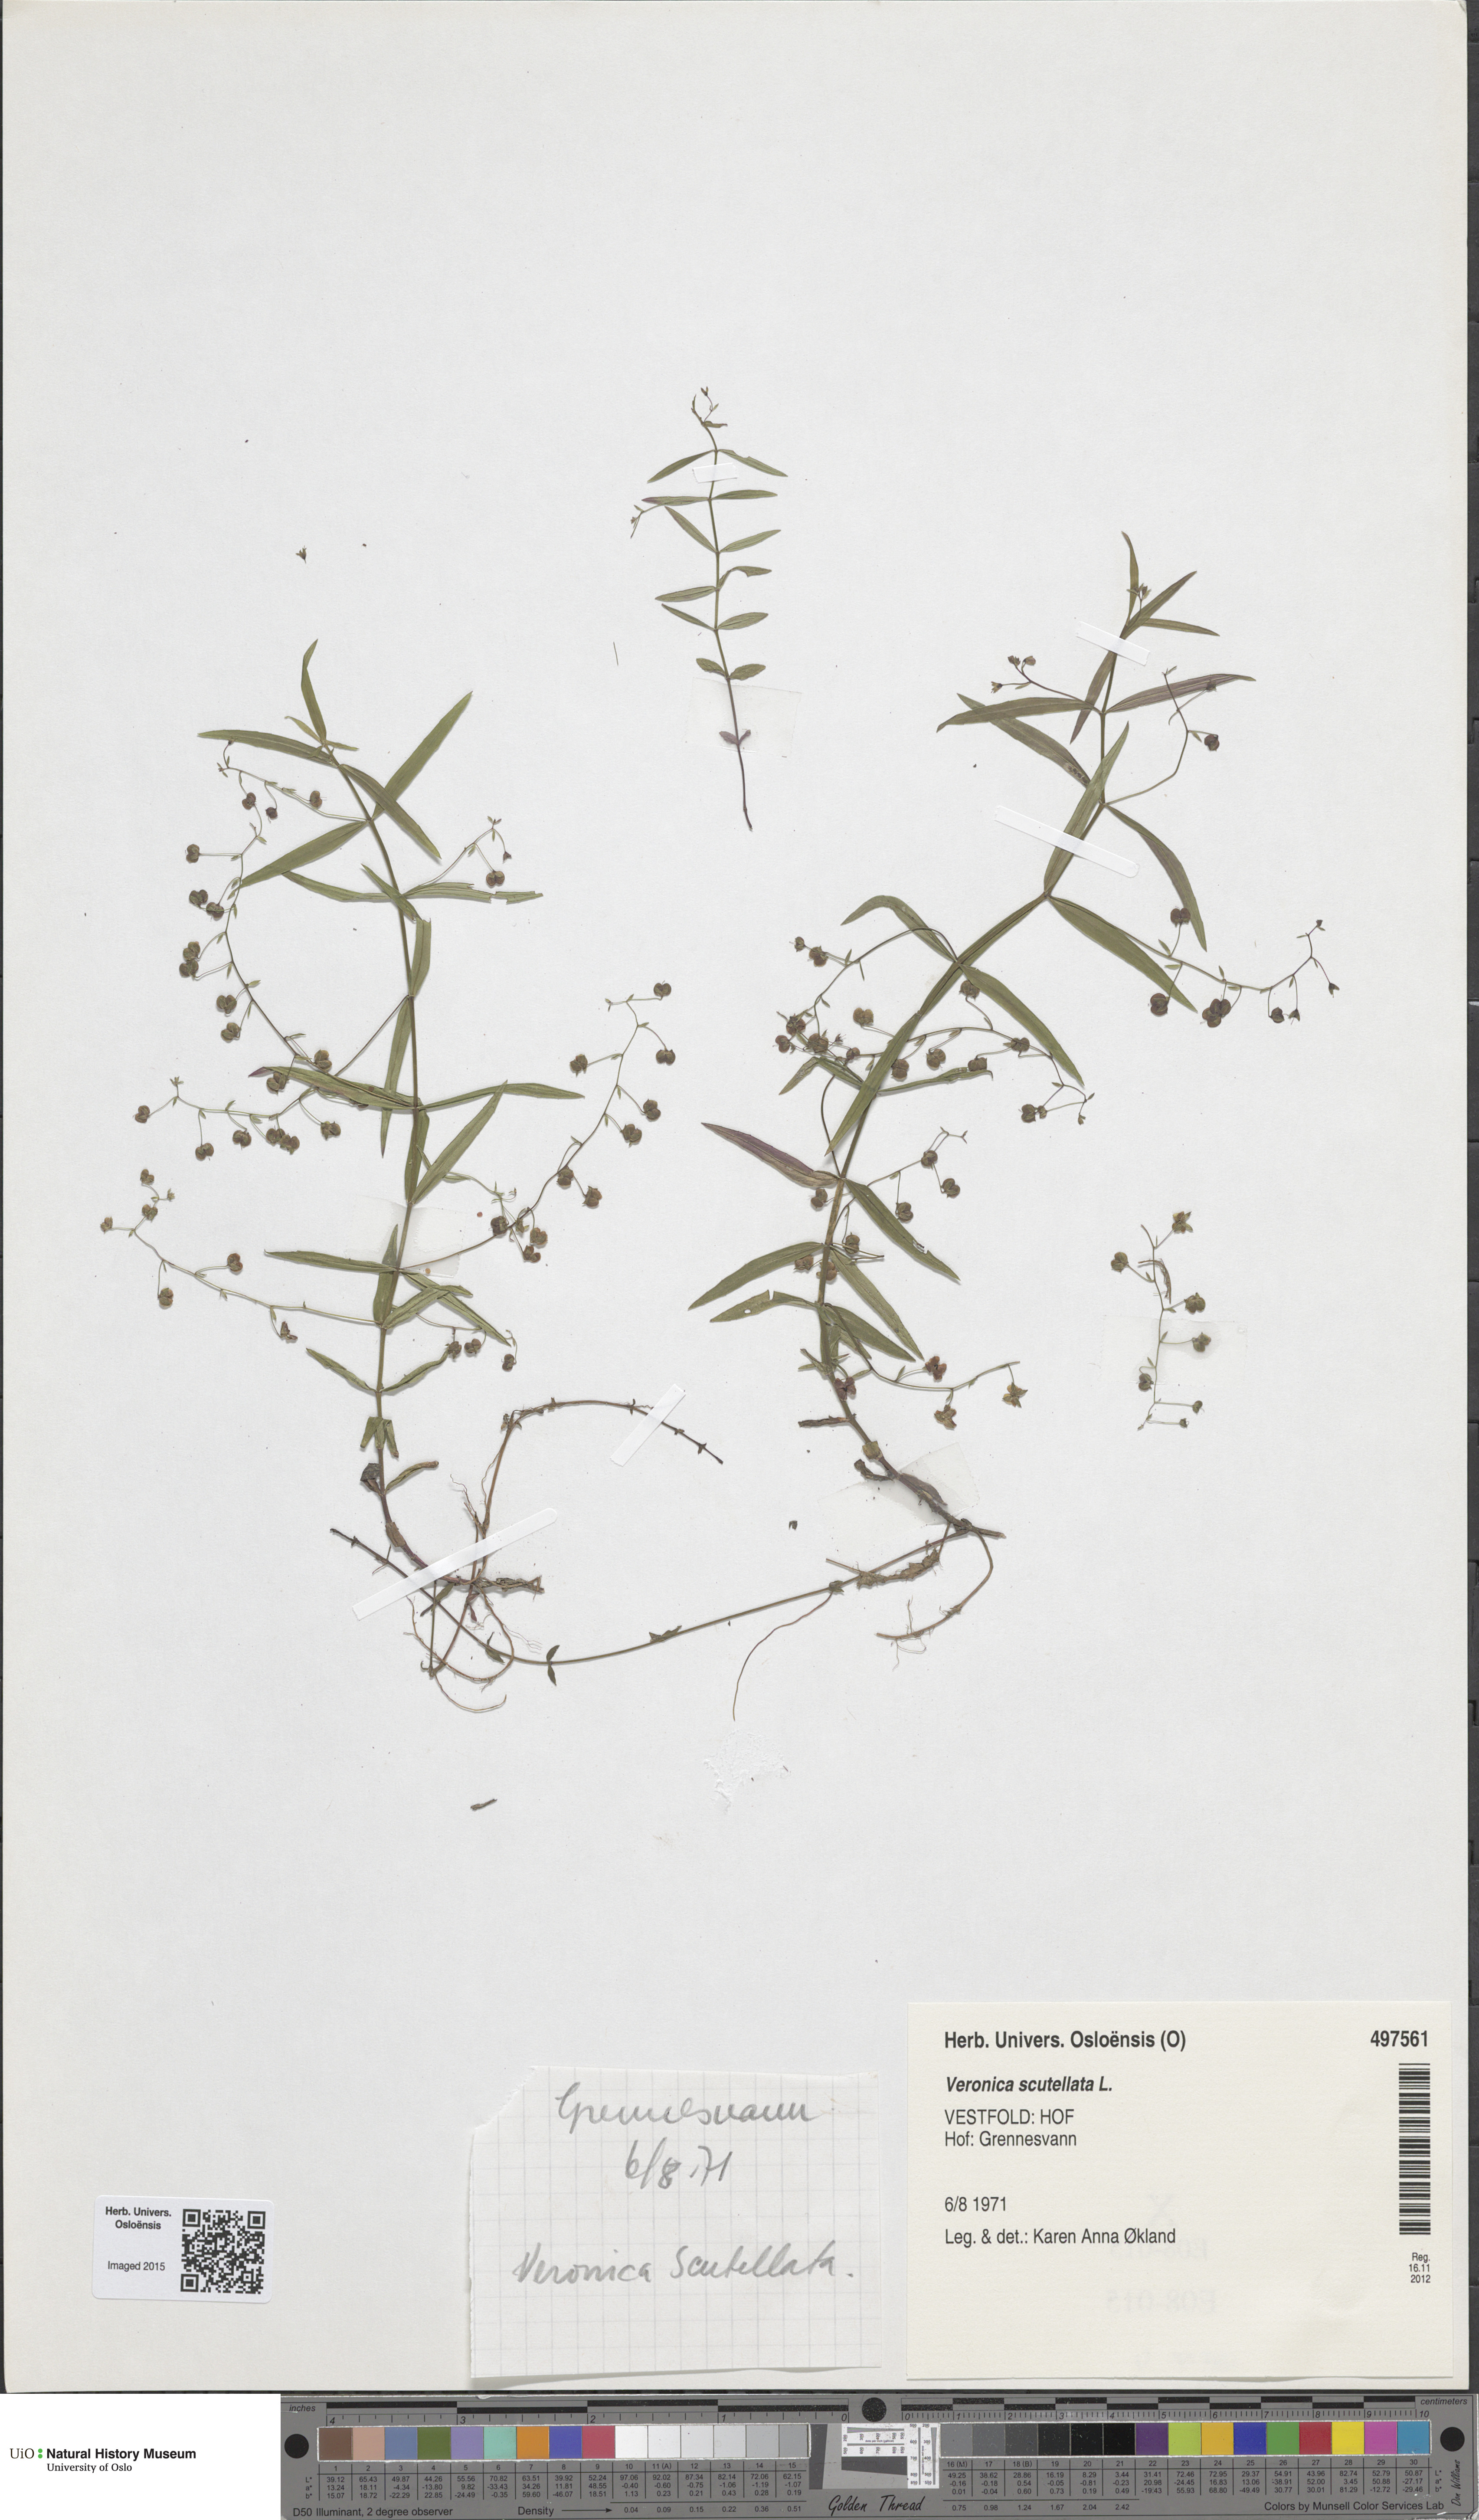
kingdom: Plantae
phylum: Tracheophyta
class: Magnoliopsida
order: Lamiales
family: Plantaginaceae
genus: Veronica
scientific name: Veronica scutellata
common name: Marsh speedwell
